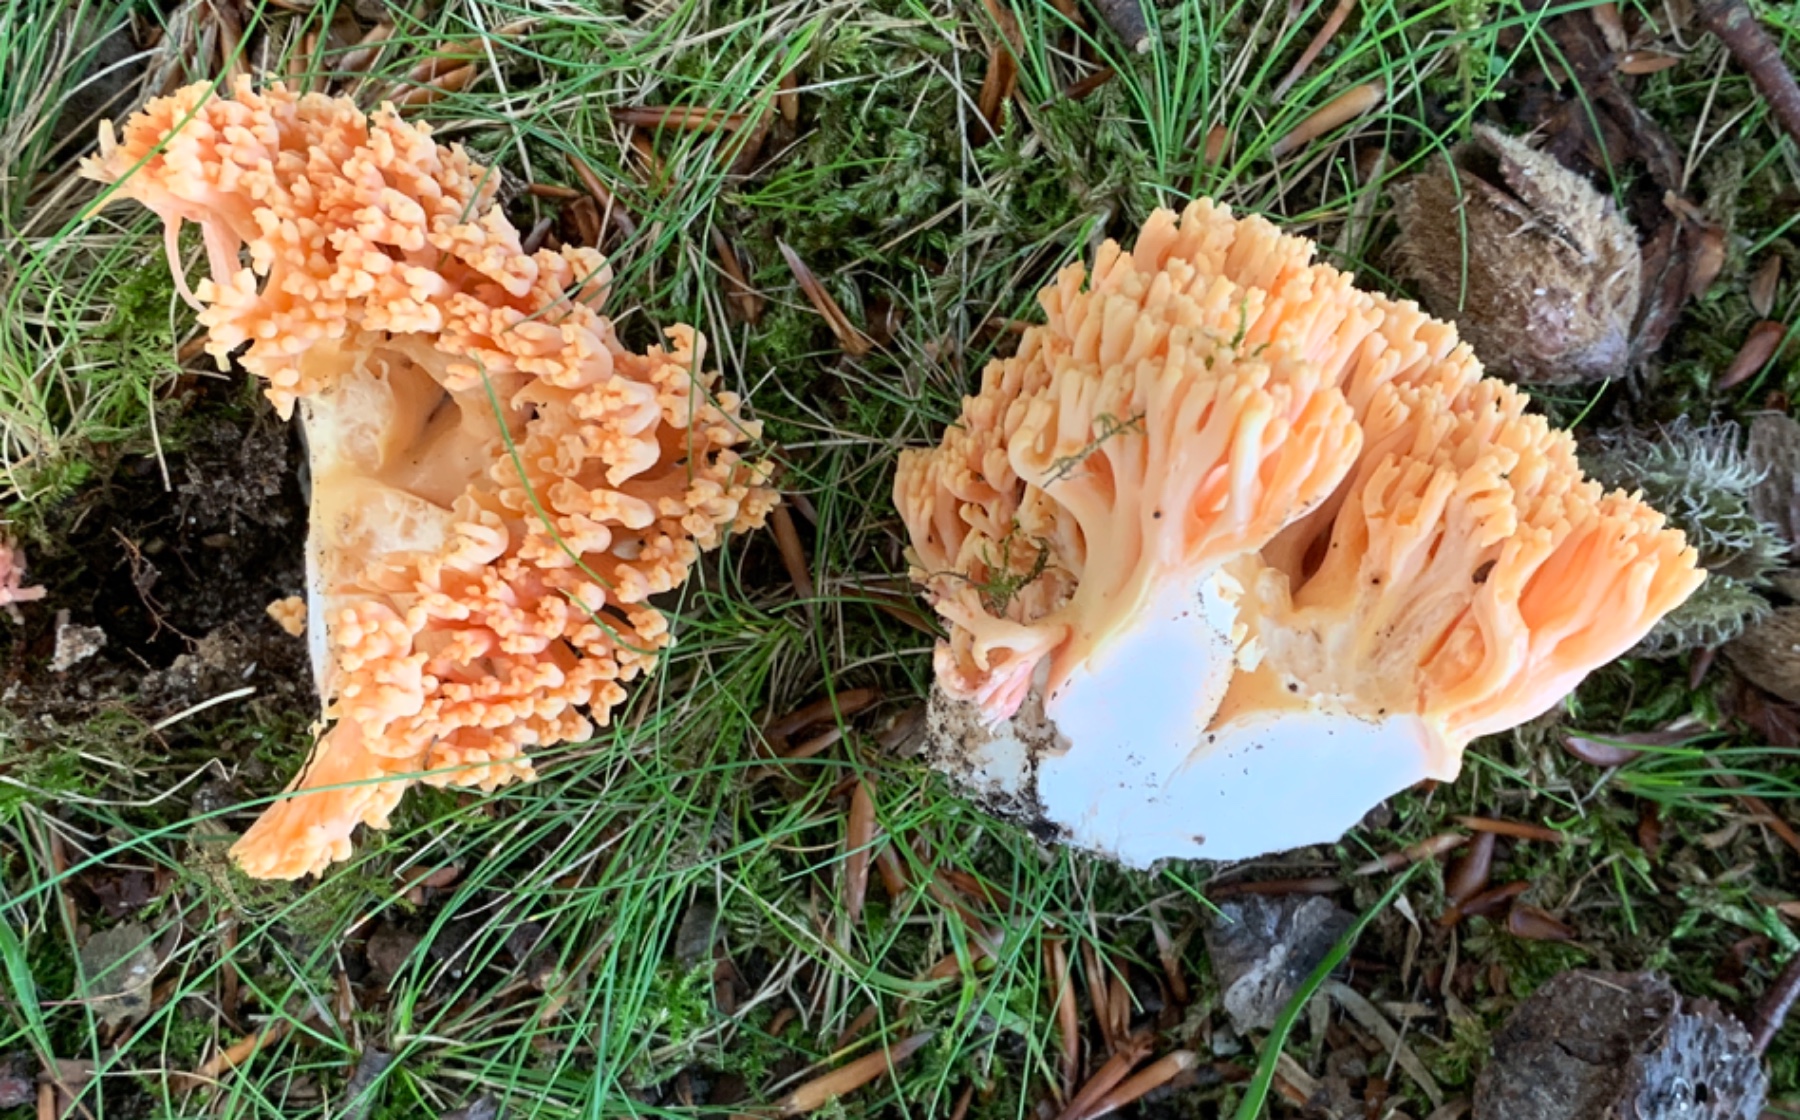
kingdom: Fungi
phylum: Basidiomycota
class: Agaricomycetes
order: Gomphales
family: Gomphaceae
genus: Ramaria
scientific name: Ramaria fagetorum
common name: abrikos-koralsvamp
